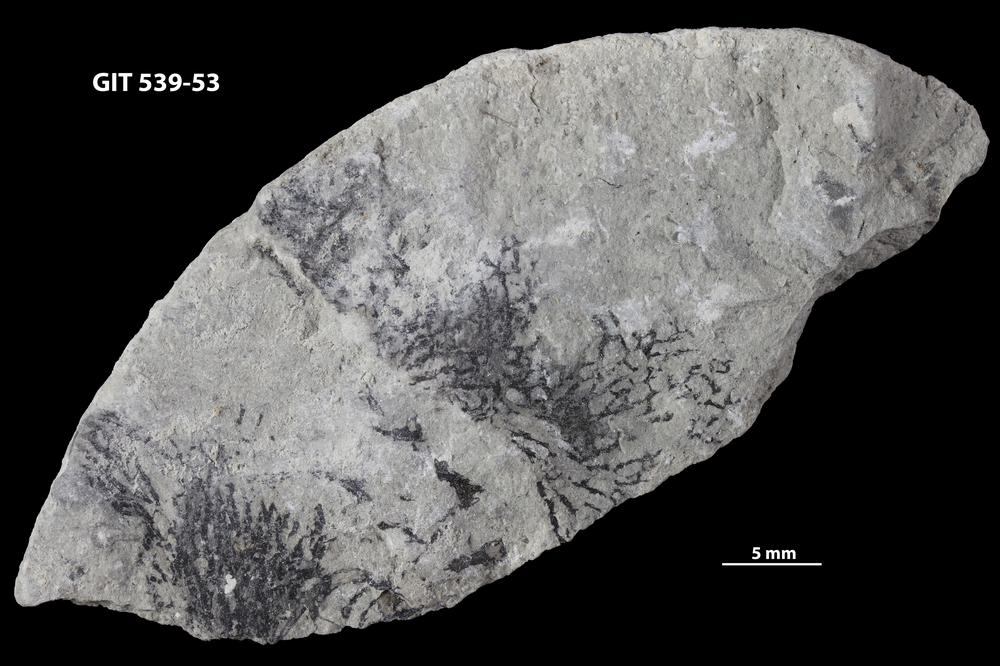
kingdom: Animalia
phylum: Hemichordata
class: Pterobranchia
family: Dendrograptidae
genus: Dendrograptus
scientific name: Dendrograptus
